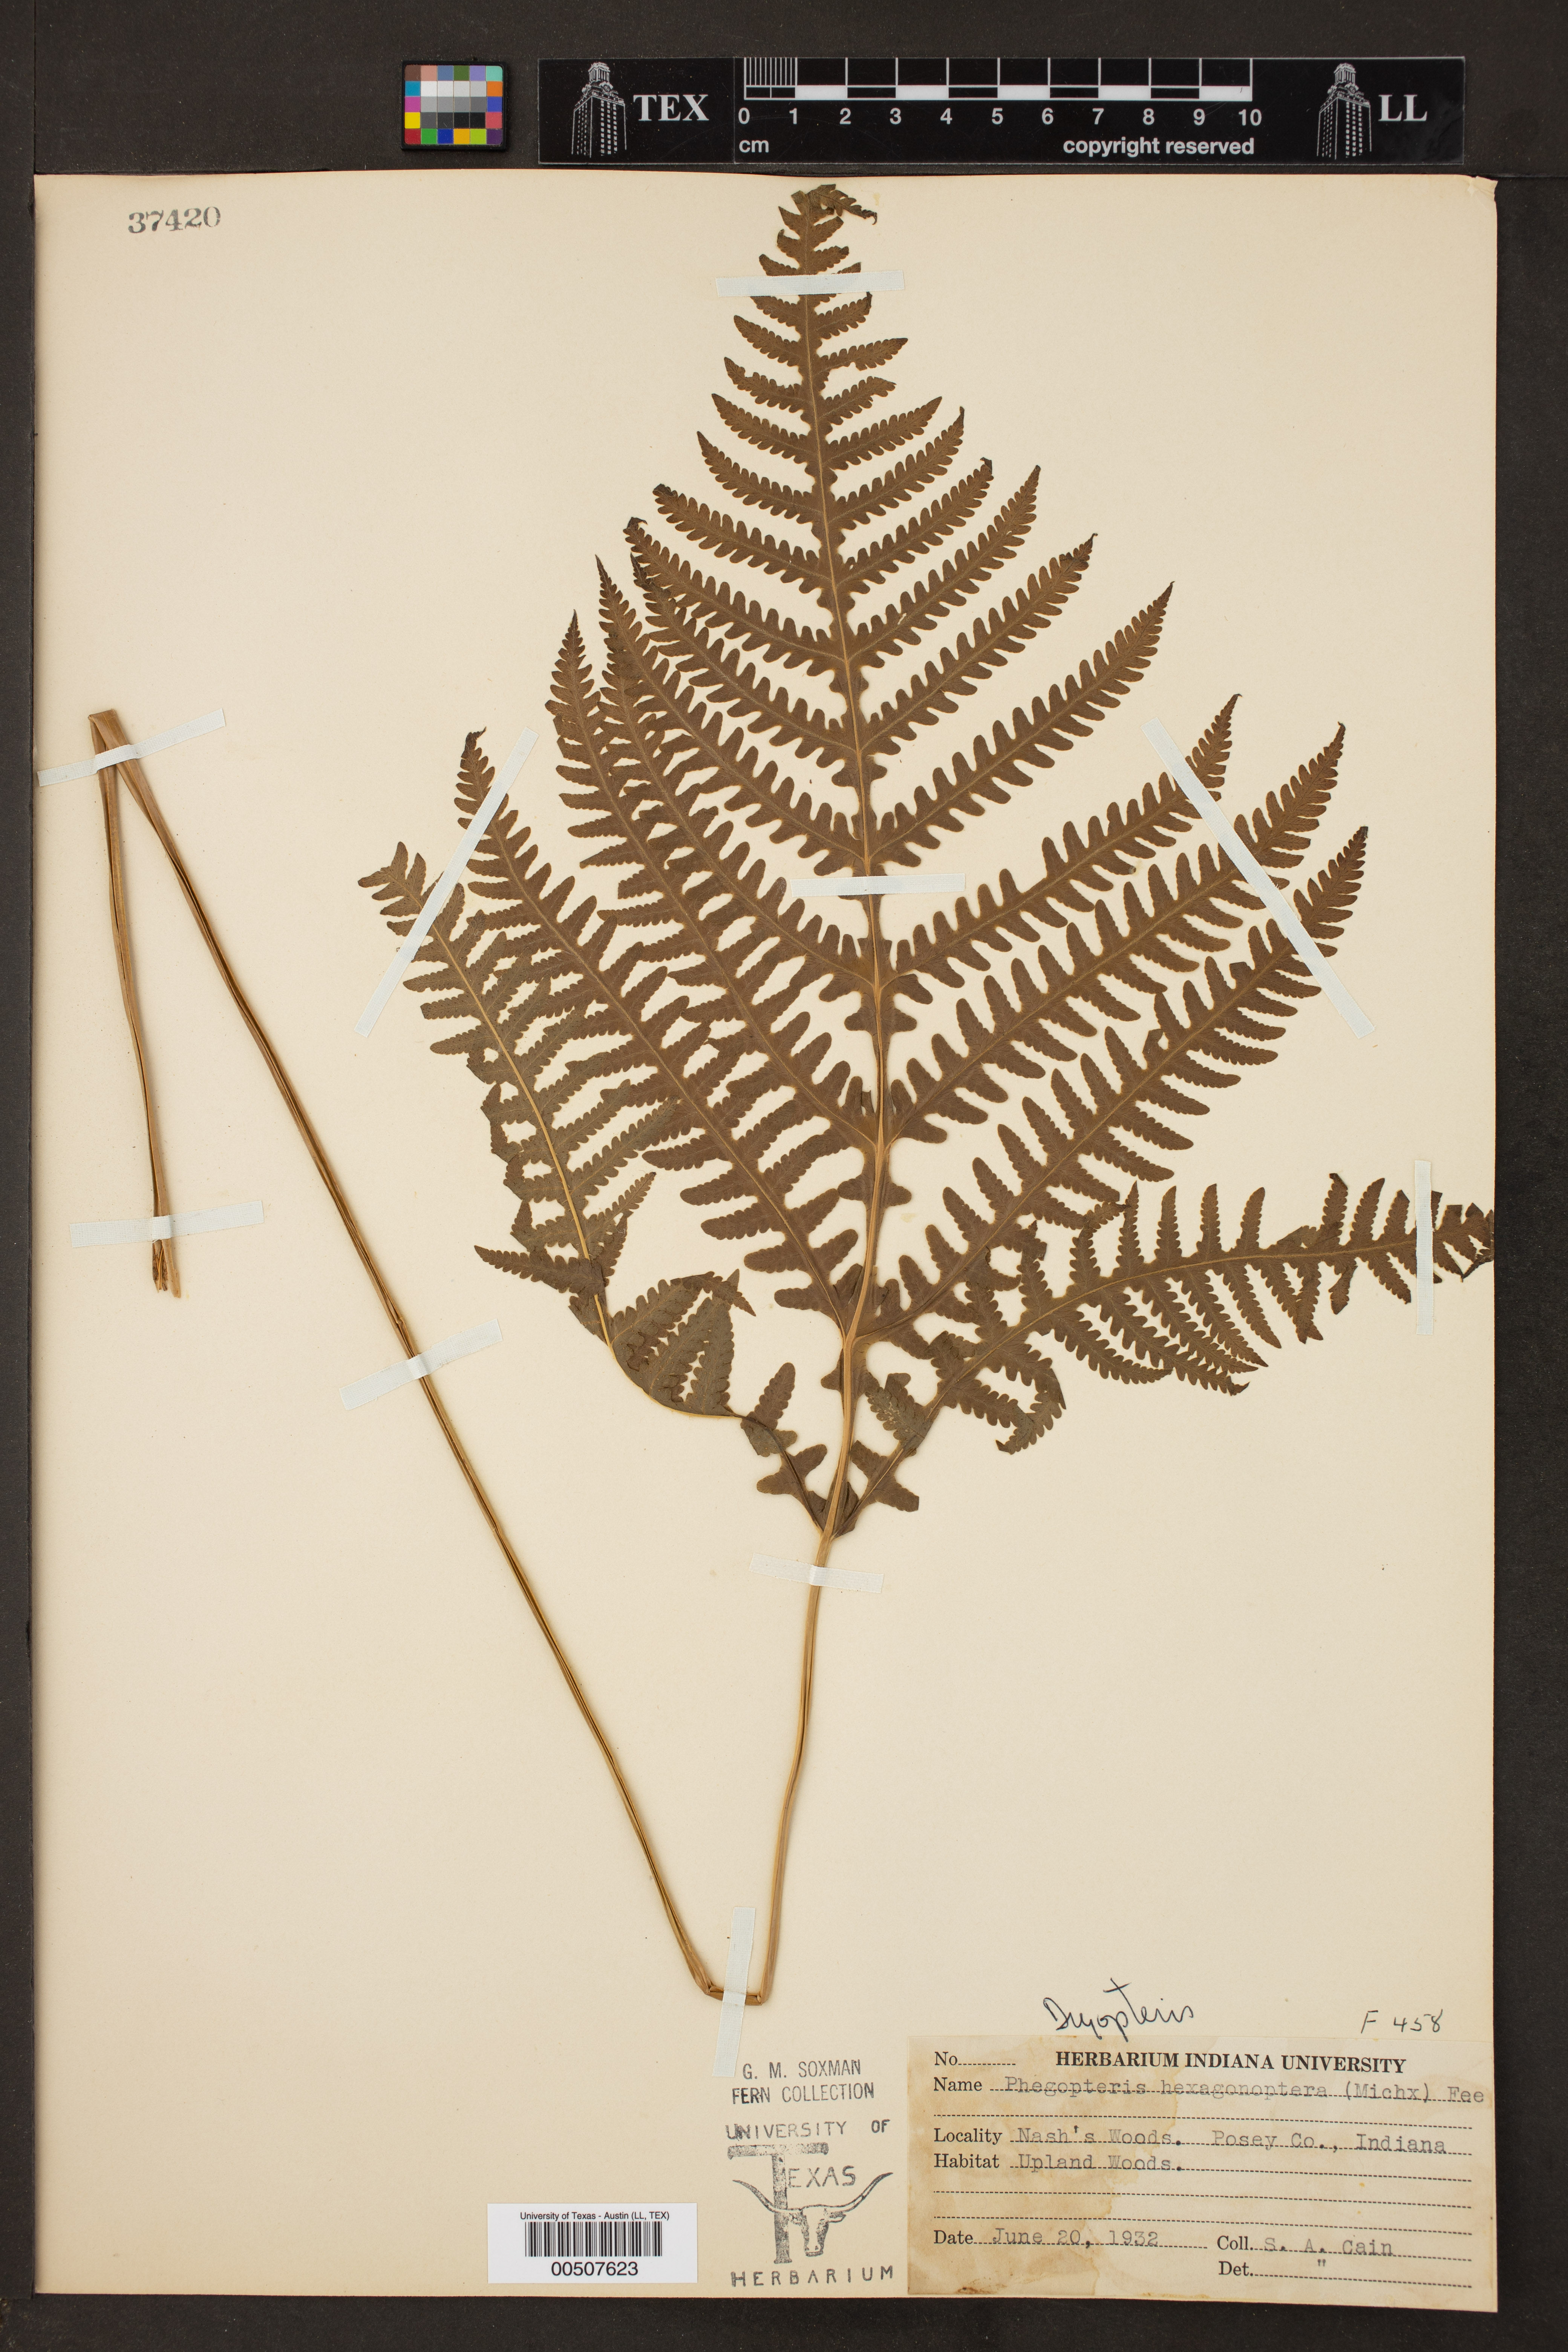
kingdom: Plantae
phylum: Tracheophyta
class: Polypodiopsida
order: Polypodiales
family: Thelypteridaceae
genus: Phegopteris
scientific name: Phegopteris hexagonoptera
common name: Broad beech fern
